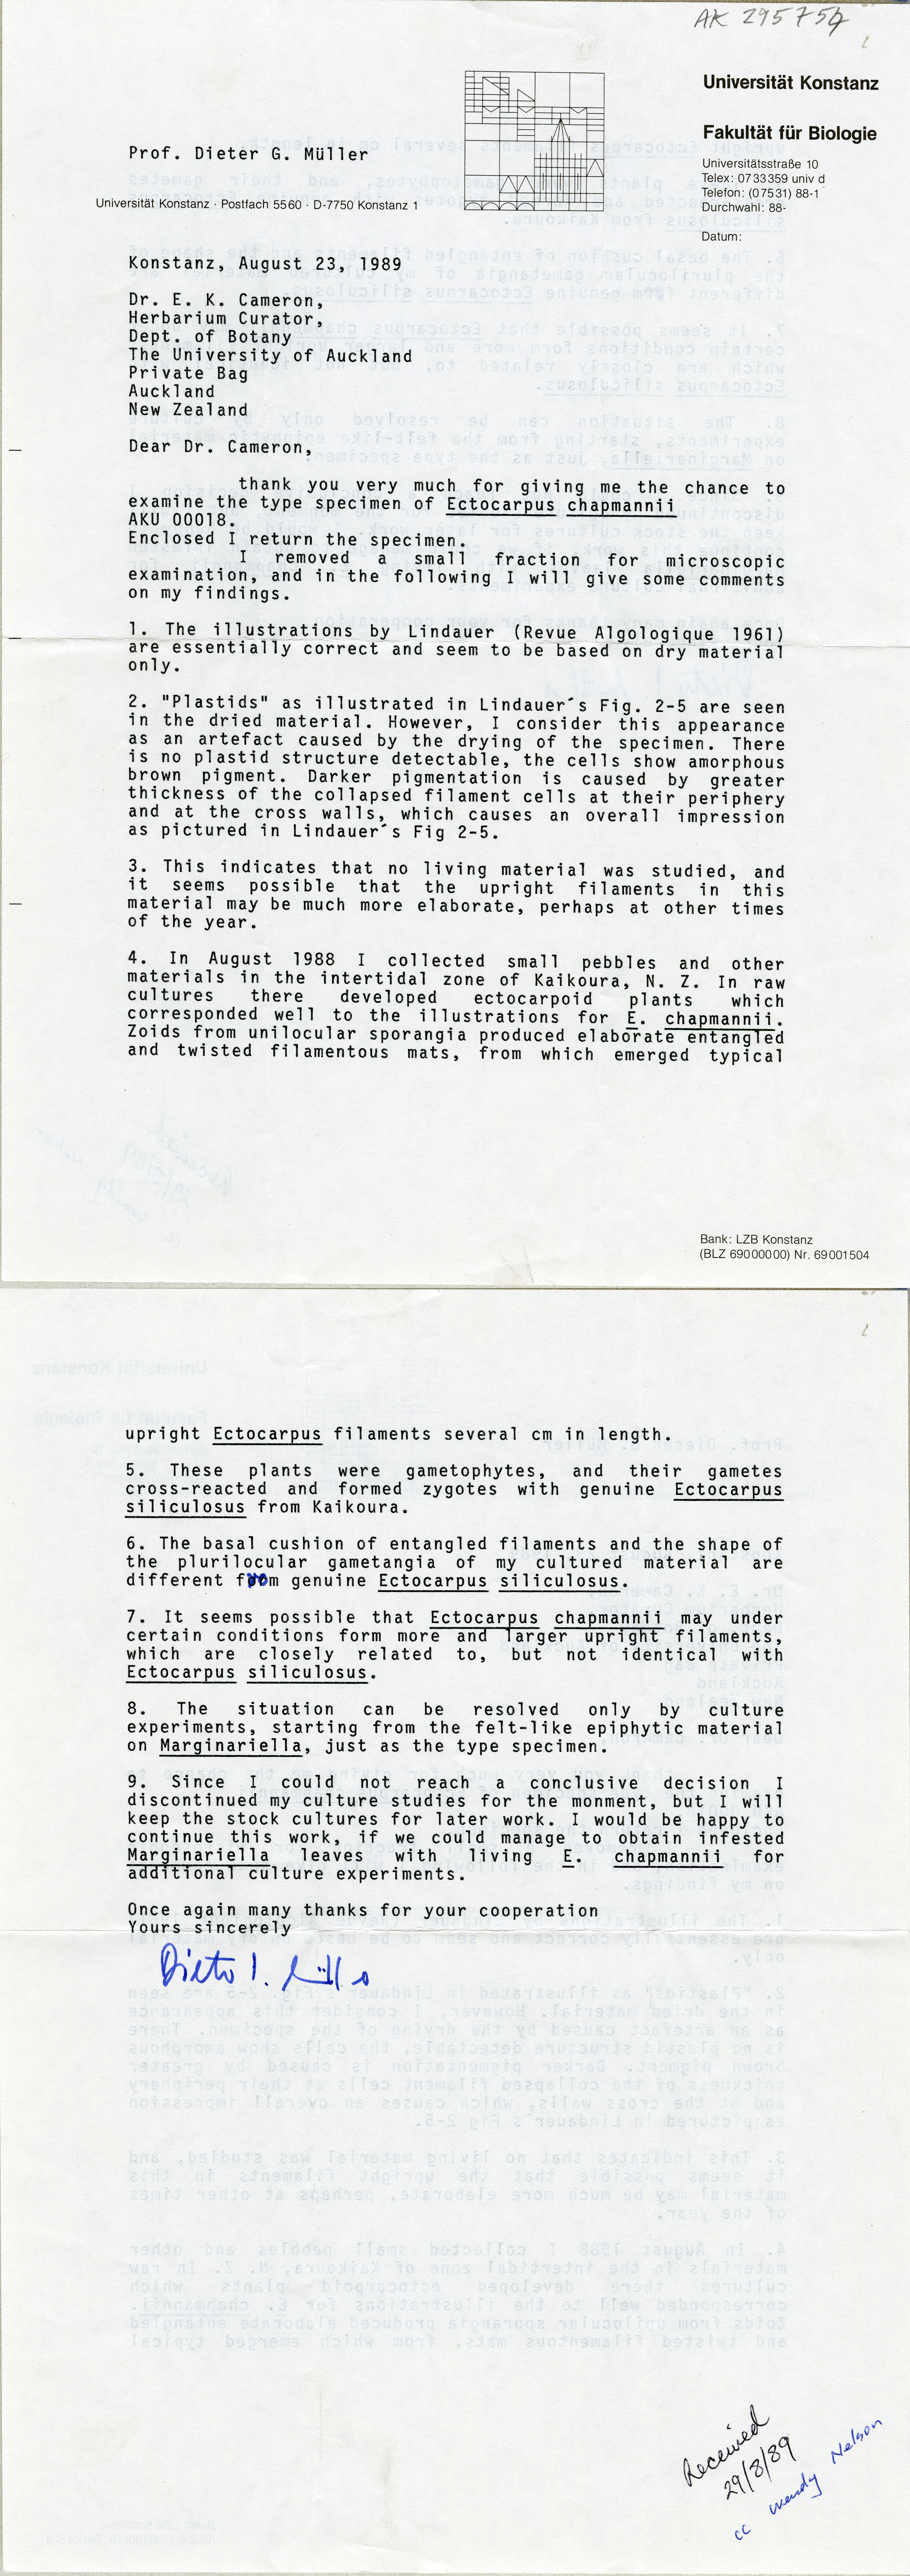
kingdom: Chromista
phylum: Ochrophyta
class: Phaeophyceae
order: Ectocarpales
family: Ectocarpaceae
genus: Ectocarpus
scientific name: Ectocarpus chapmanii
